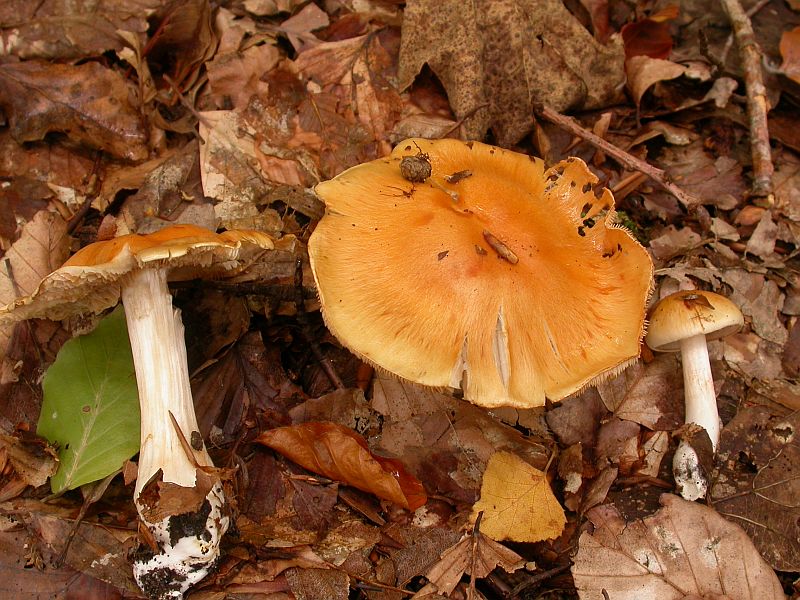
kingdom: Fungi
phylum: Basidiomycota
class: Agaricomycetes
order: Agaricales
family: Cortinariaceae
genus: Thaxterogaster
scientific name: Thaxterogaster emollitus
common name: besk slørhat
